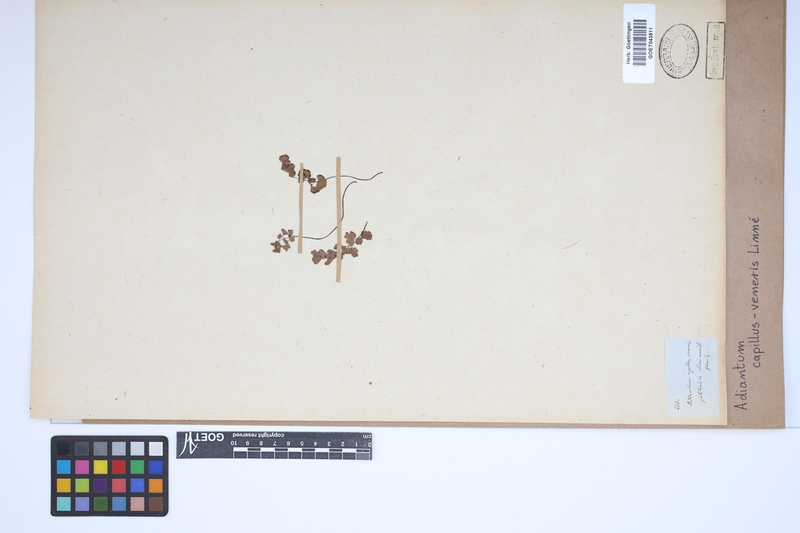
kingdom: Plantae
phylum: Tracheophyta
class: Polypodiopsida
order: Polypodiales
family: Pteridaceae
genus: Adiantum
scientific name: Adiantum capillus-veneris
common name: Maidenhair fern
